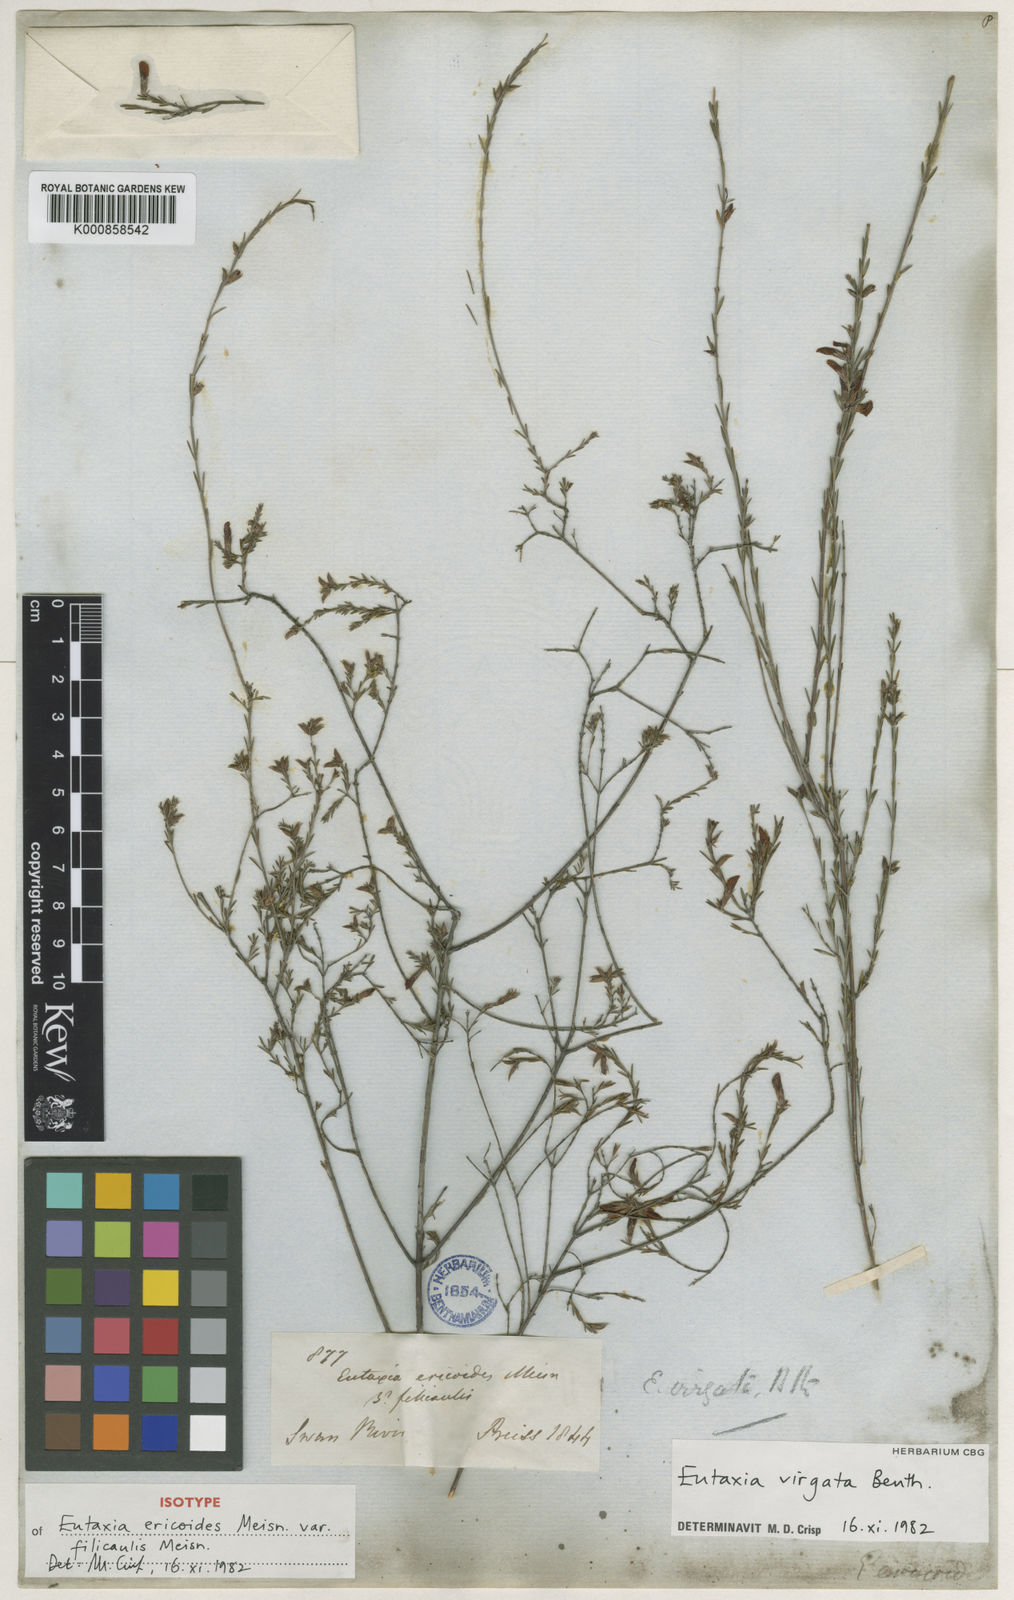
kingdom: Plantae
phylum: Tracheophyta
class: Magnoliopsida
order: Fabales
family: Fabaceae
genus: Eutaxia
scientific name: Eutaxia virgata
